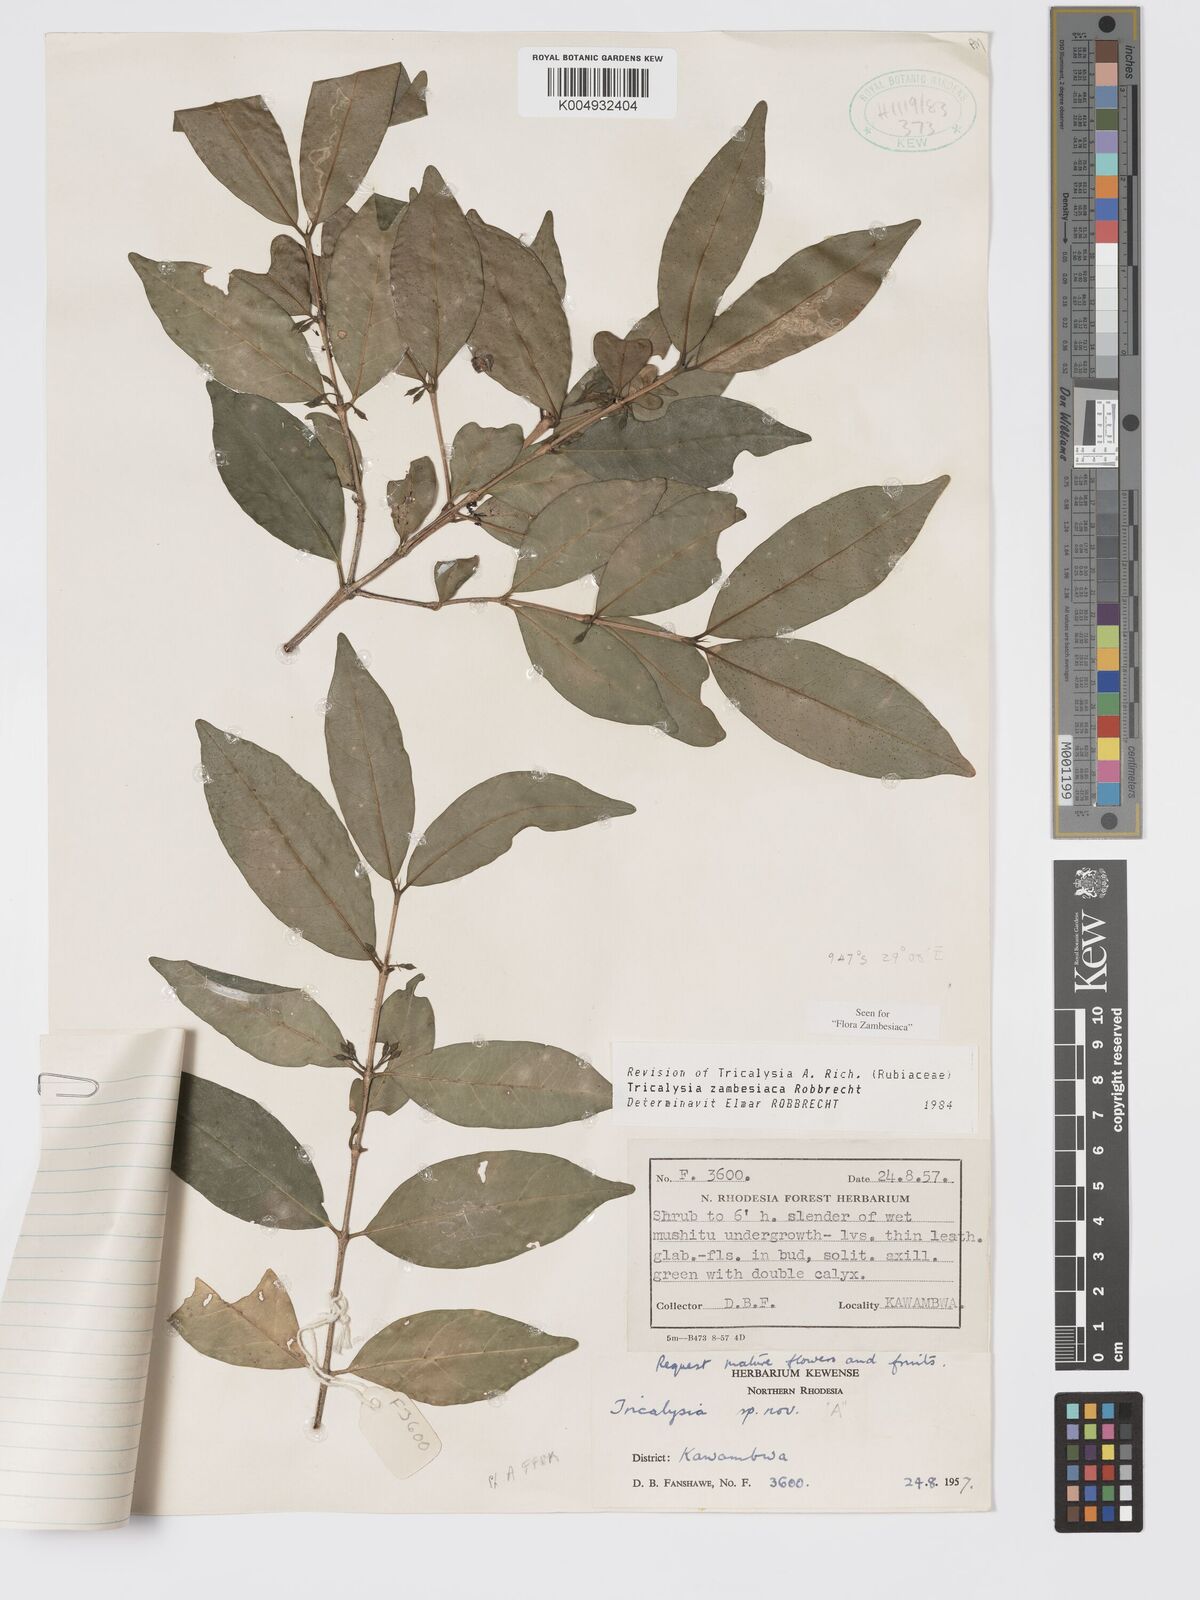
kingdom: Plantae
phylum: Tracheophyta
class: Magnoliopsida
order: Gentianales
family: Rubiaceae
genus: Tricalysia
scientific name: Tricalysia
